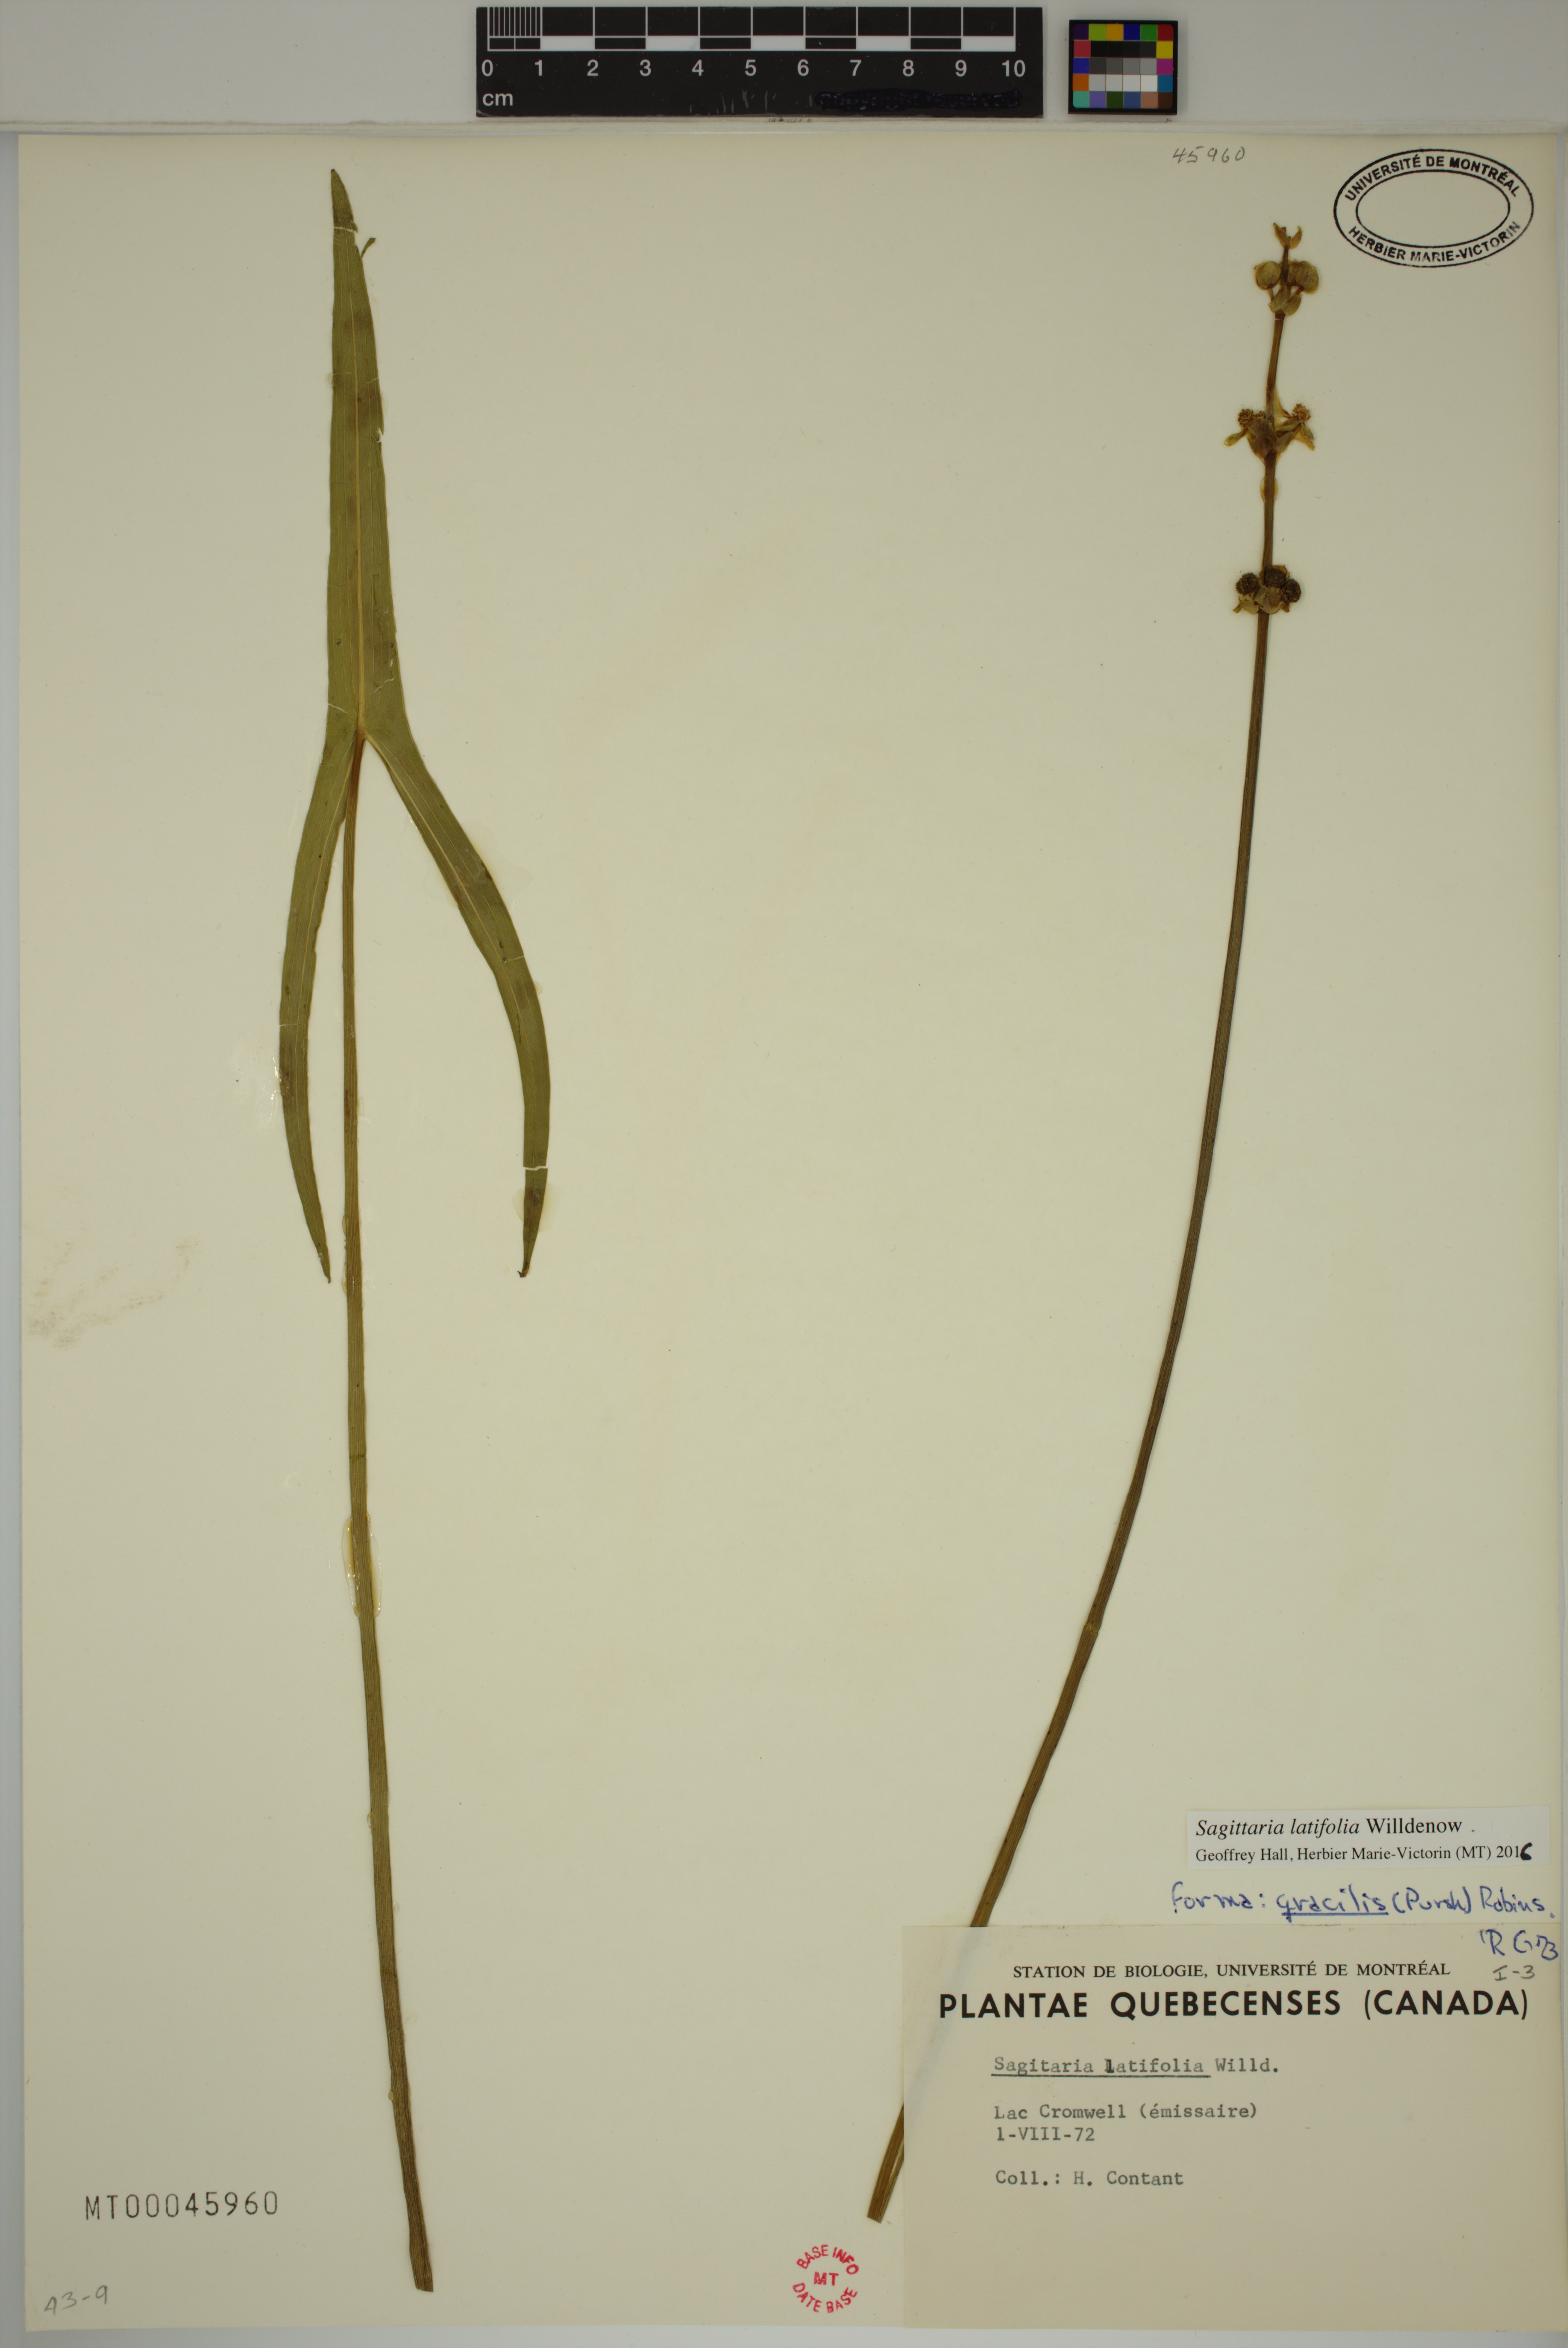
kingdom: Plantae
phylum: Tracheophyta
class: Liliopsida
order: Alismatales
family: Alismataceae
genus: Sagittaria
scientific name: Sagittaria latifolia
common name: Duck-potato
